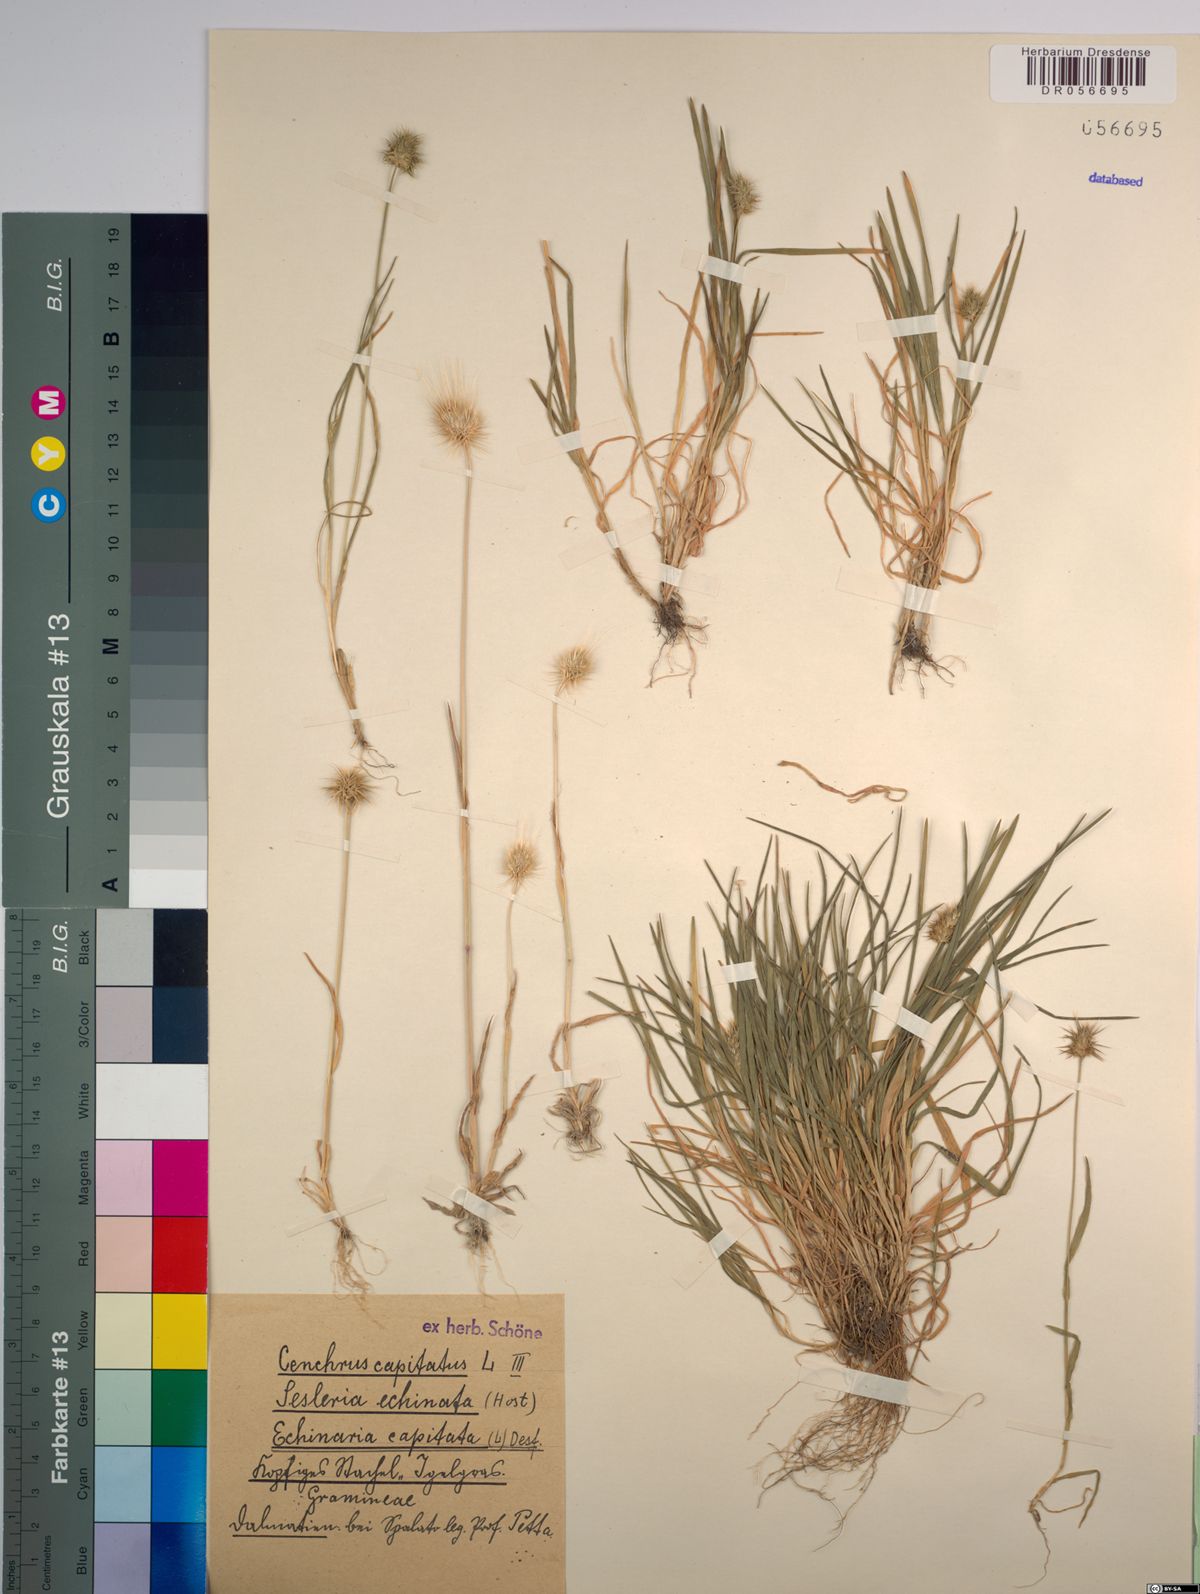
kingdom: Plantae
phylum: Tracheophyta
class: Liliopsida
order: Poales
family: Poaceae
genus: Echinaria
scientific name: Echinaria capitata
